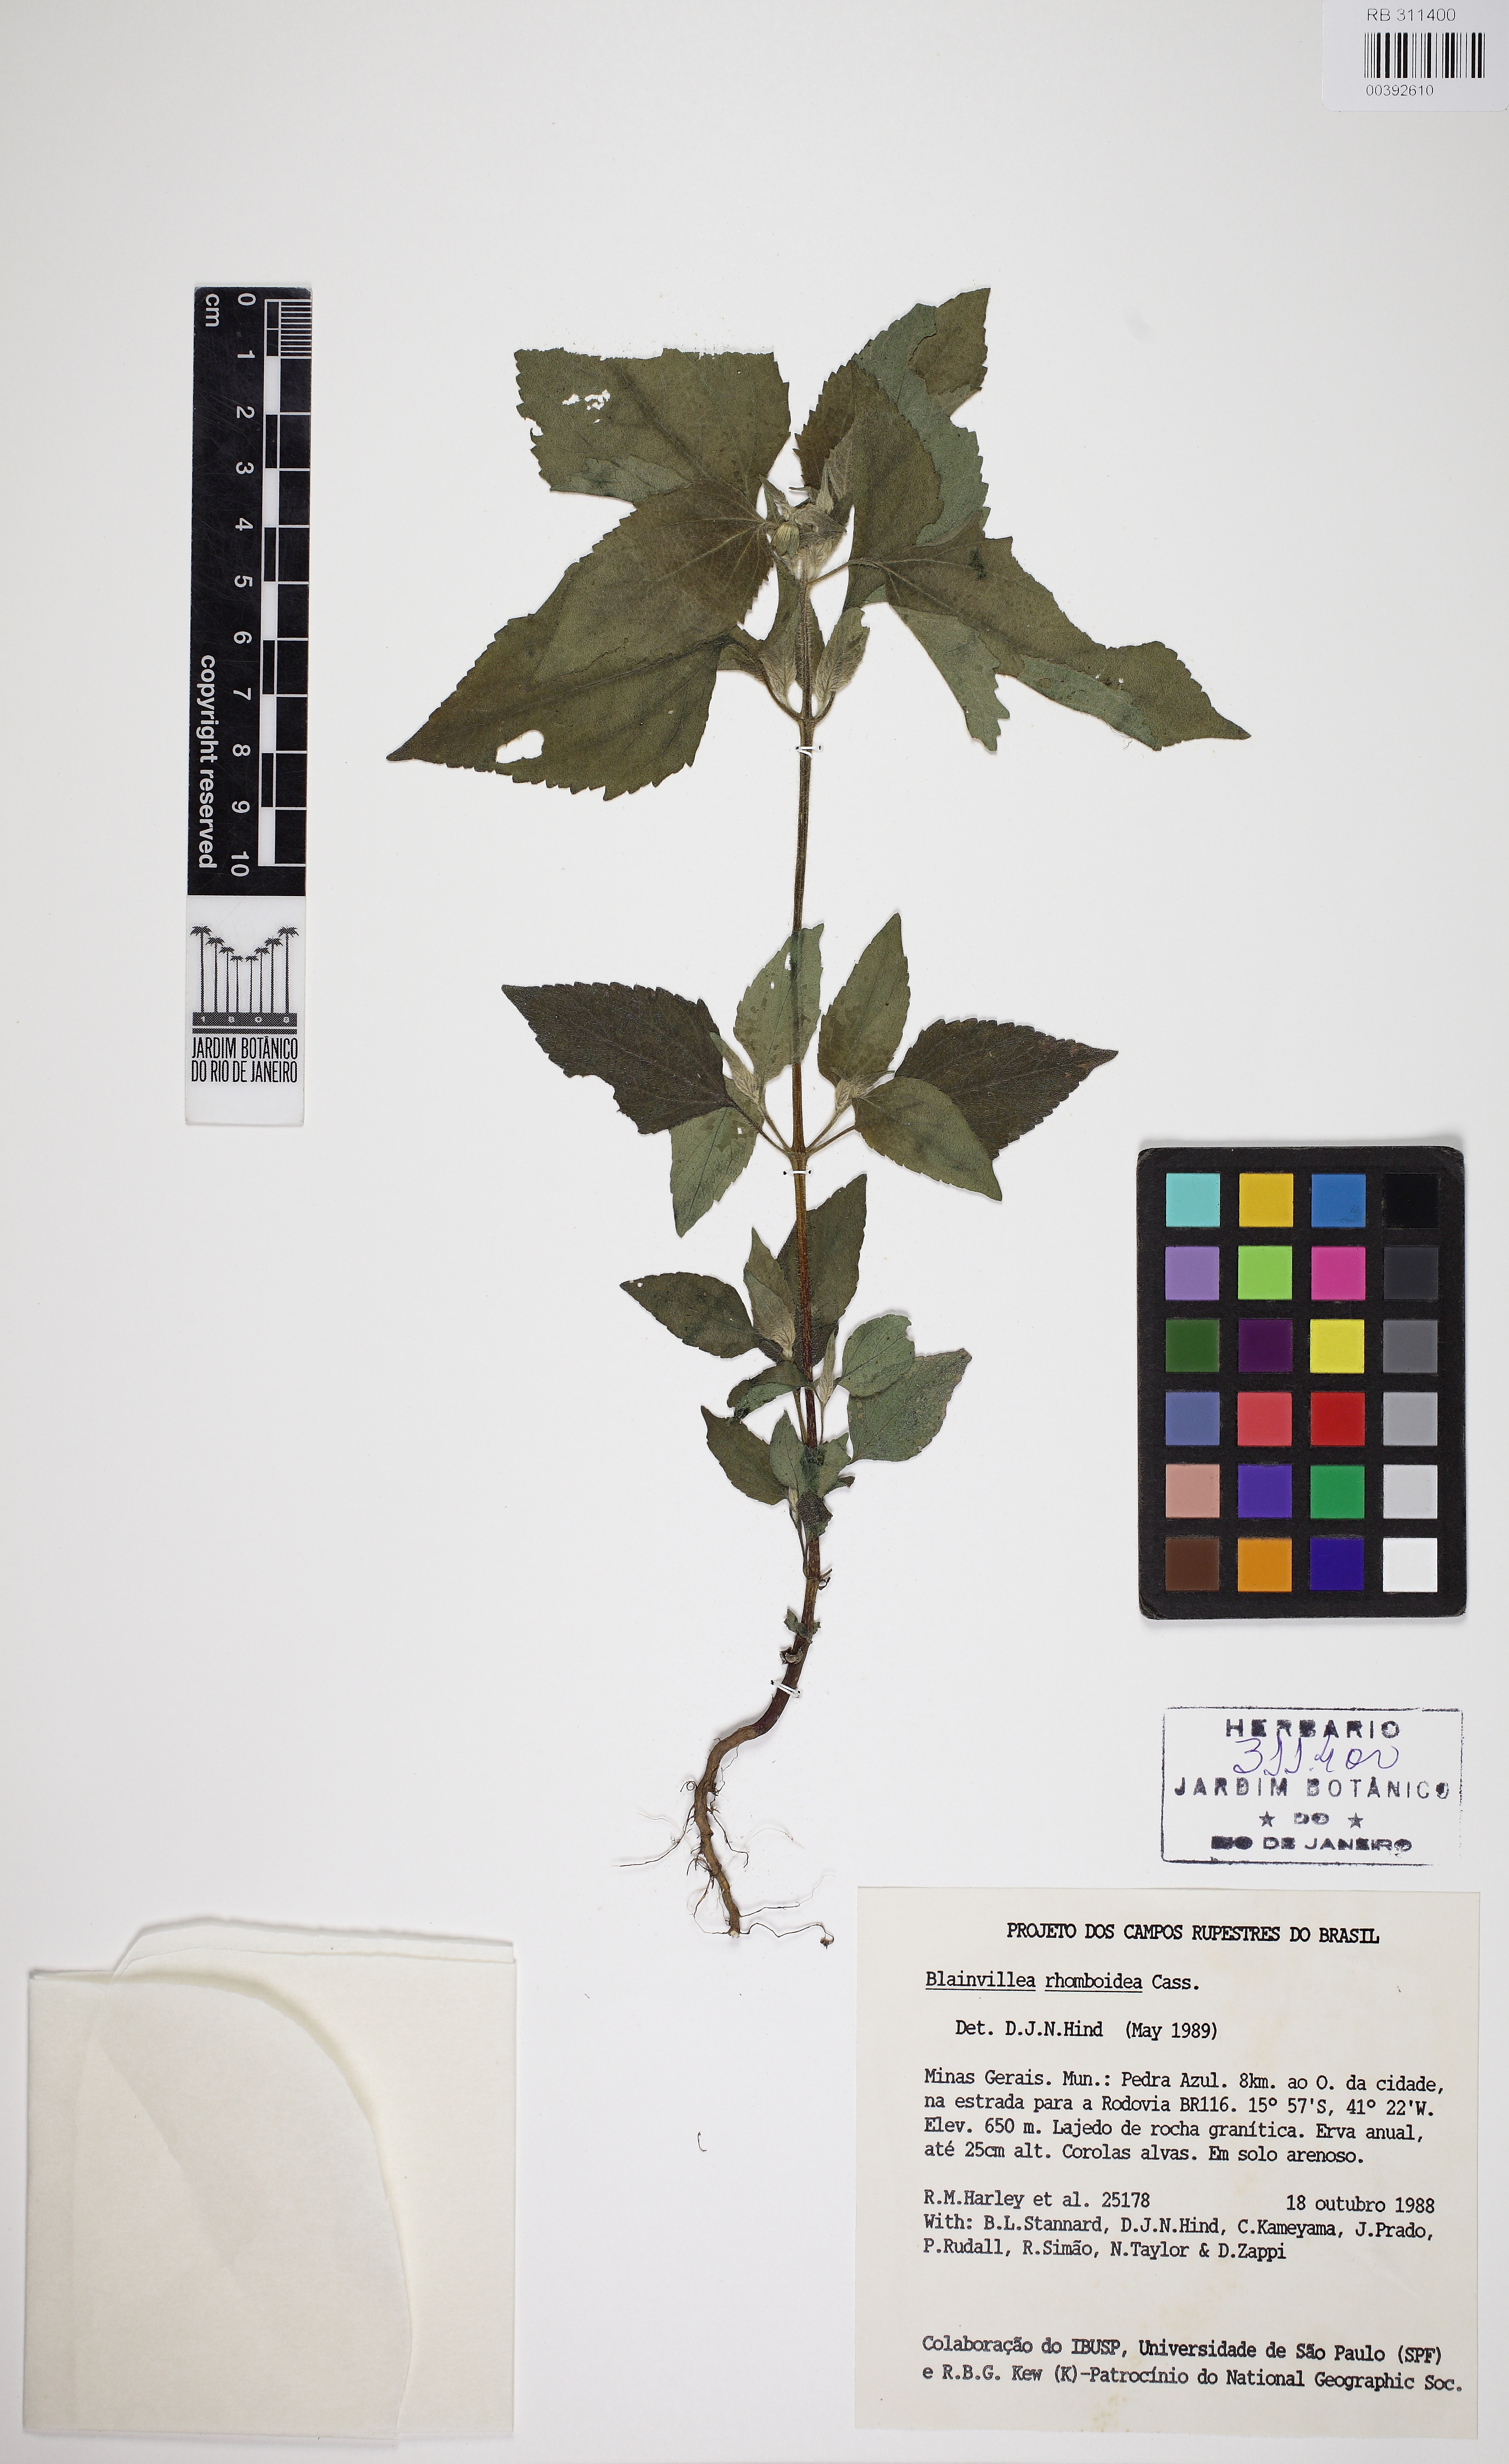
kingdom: Plantae
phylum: Tracheophyta
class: Magnoliopsida
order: Asterales
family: Asteraceae
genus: Blainvillea
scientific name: Blainvillea dichotoma
